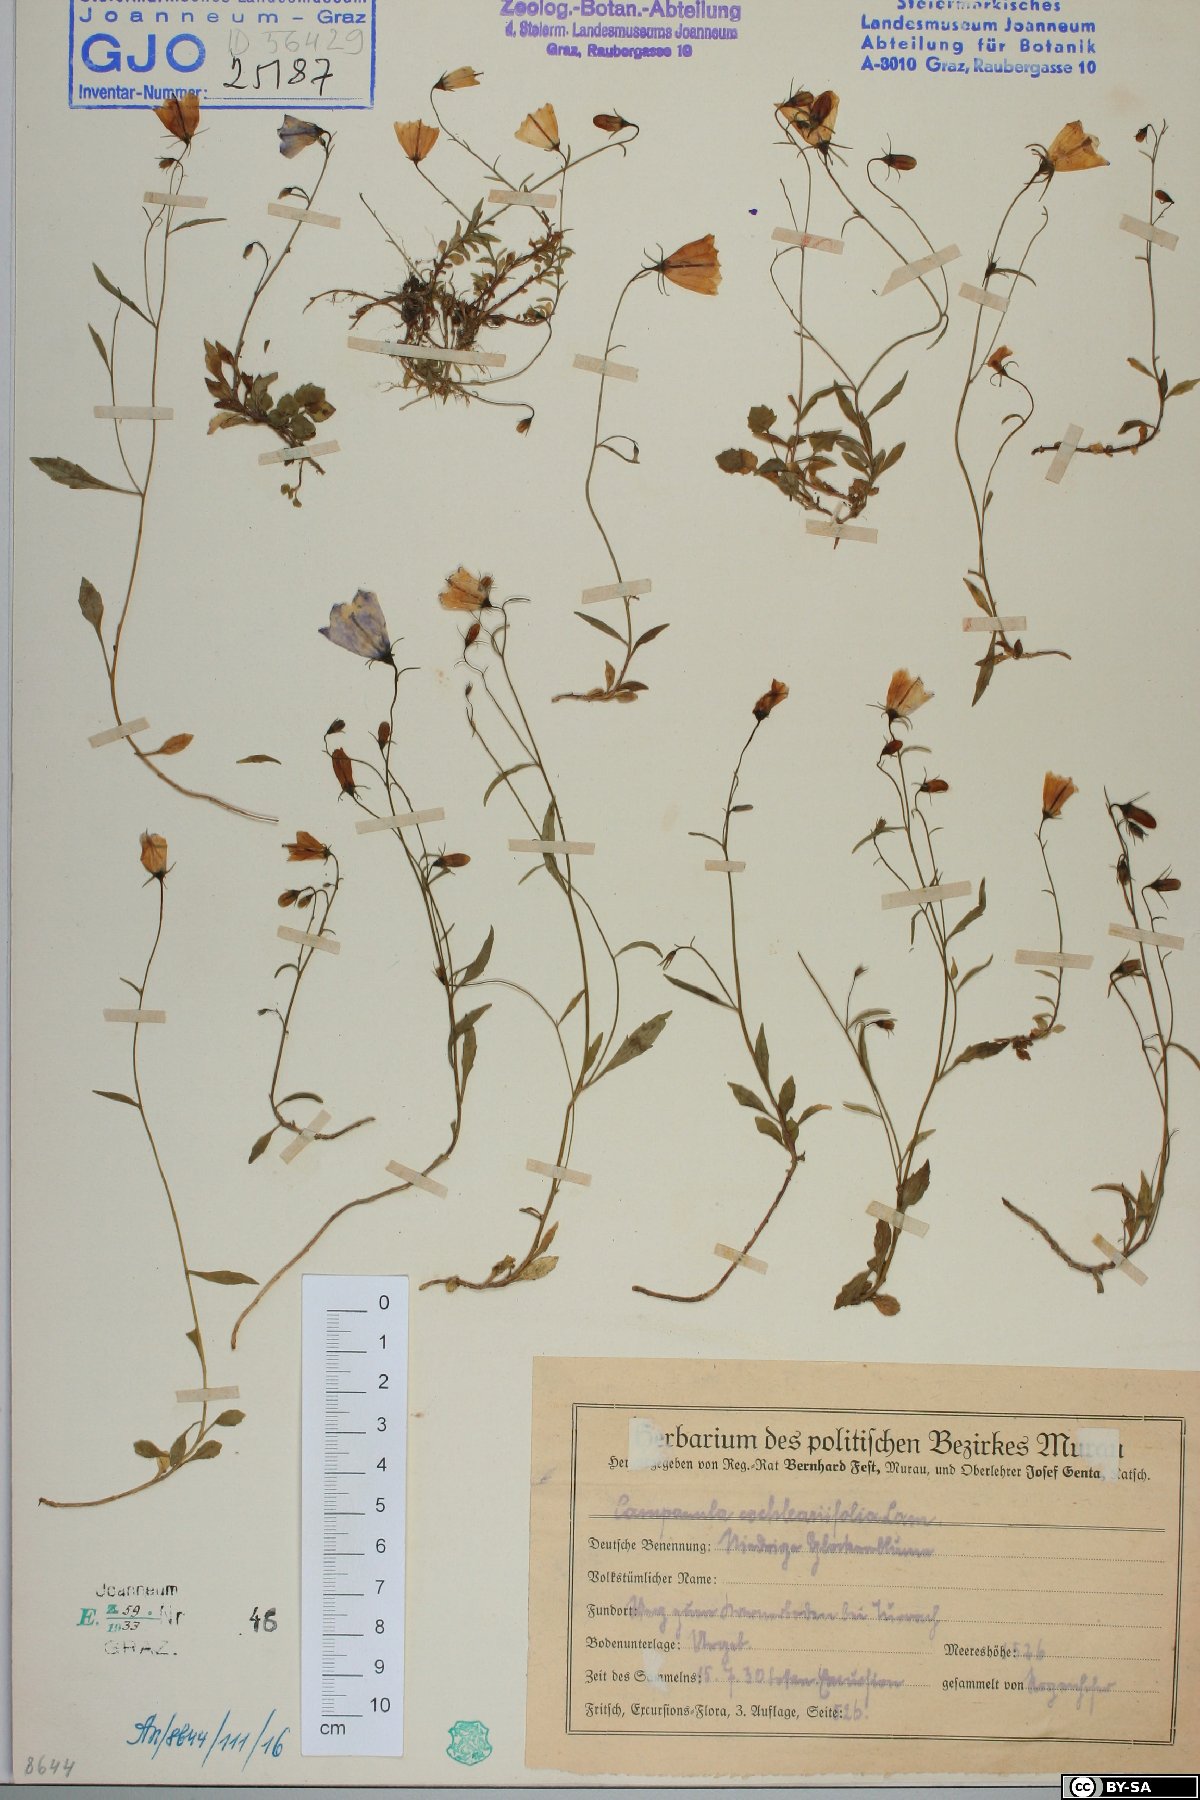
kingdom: Plantae
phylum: Tracheophyta
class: Magnoliopsida
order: Asterales
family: Campanulaceae
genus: Campanula
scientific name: Campanula cochleariifolia
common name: Fairies'-thimbles
